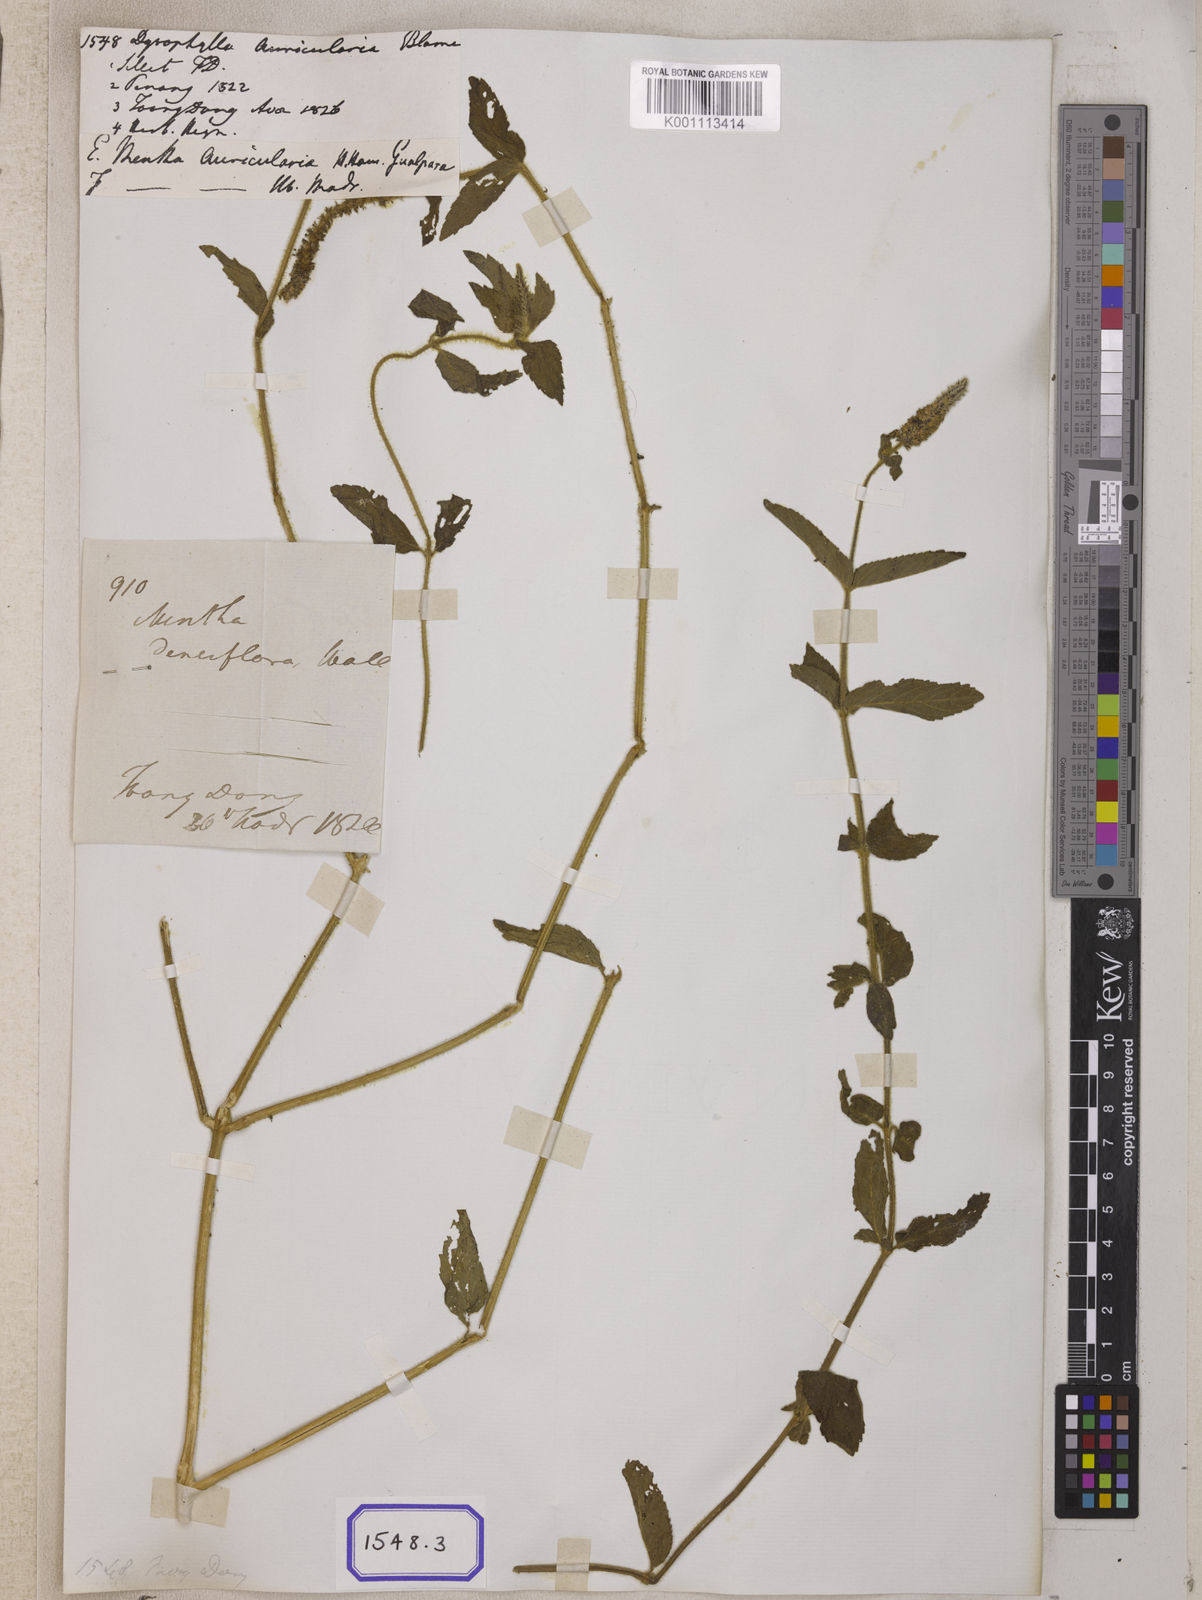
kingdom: Plantae
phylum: Tracheophyta
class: Magnoliopsida
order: Lamiales
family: Lamiaceae
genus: Pogostemon
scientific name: Pogostemon auricularius
